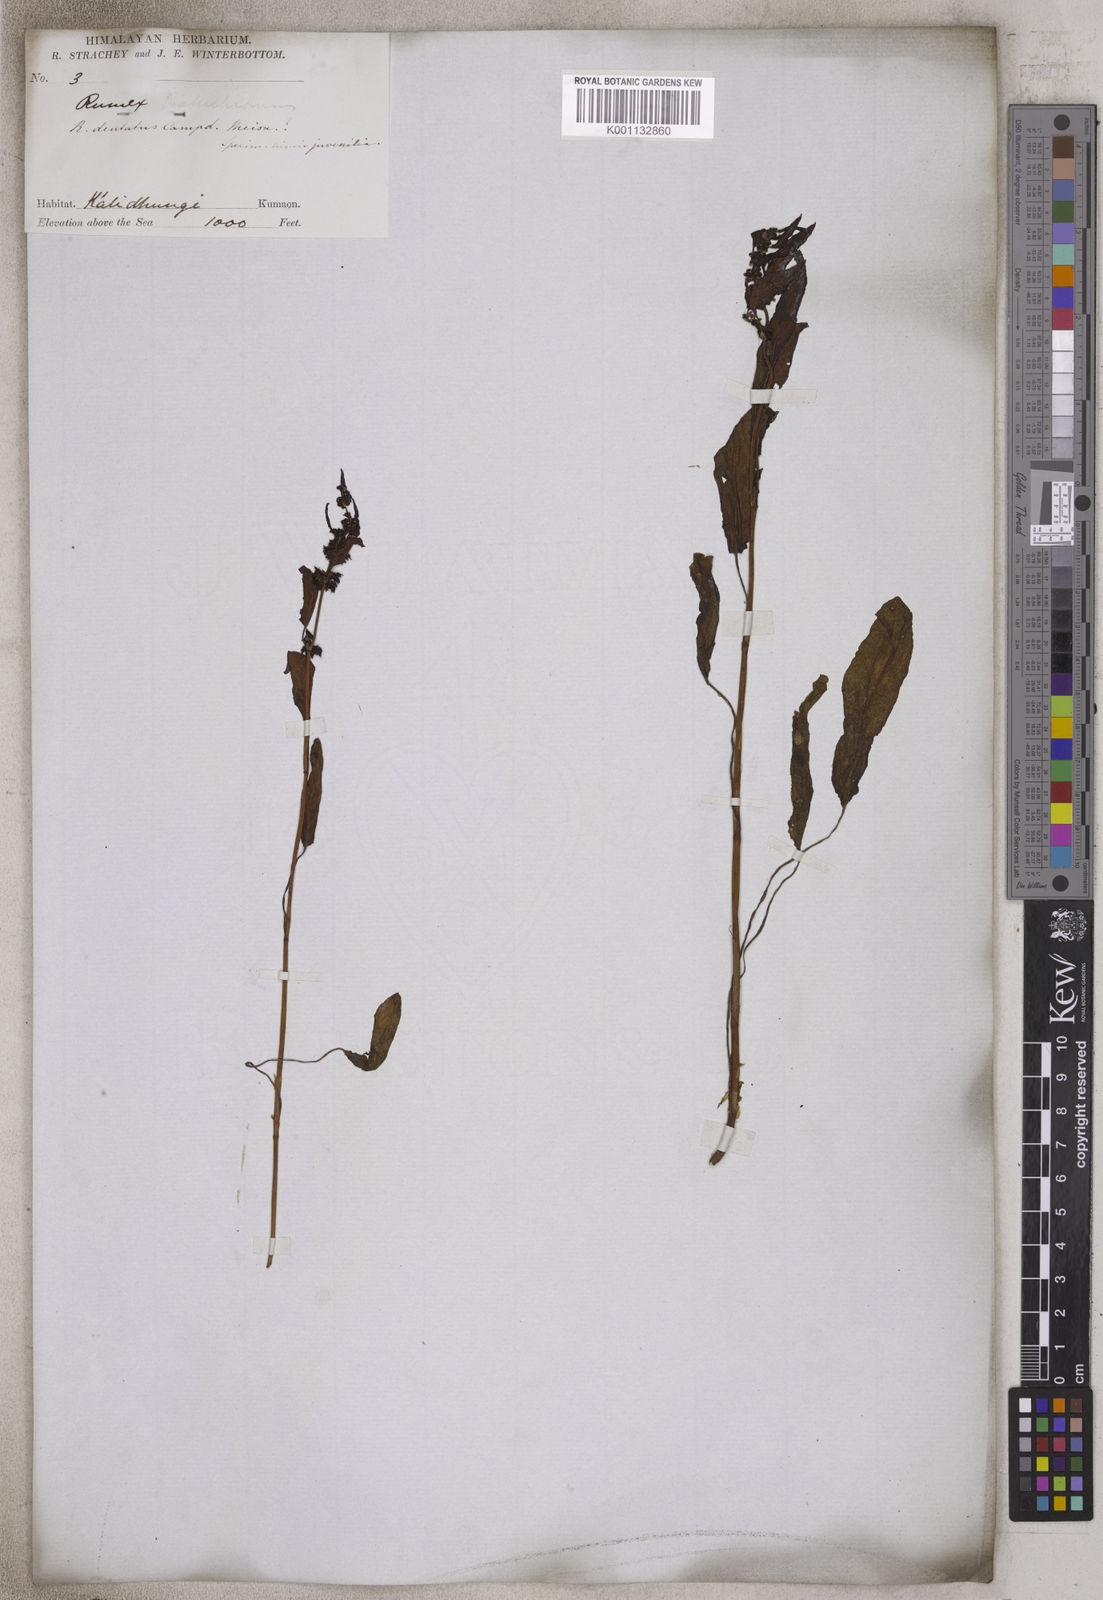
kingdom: Plantae
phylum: Tracheophyta
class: Magnoliopsida
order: Caryophyllales
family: Polygonaceae
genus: Rumex
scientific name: Rumex microcarpus
